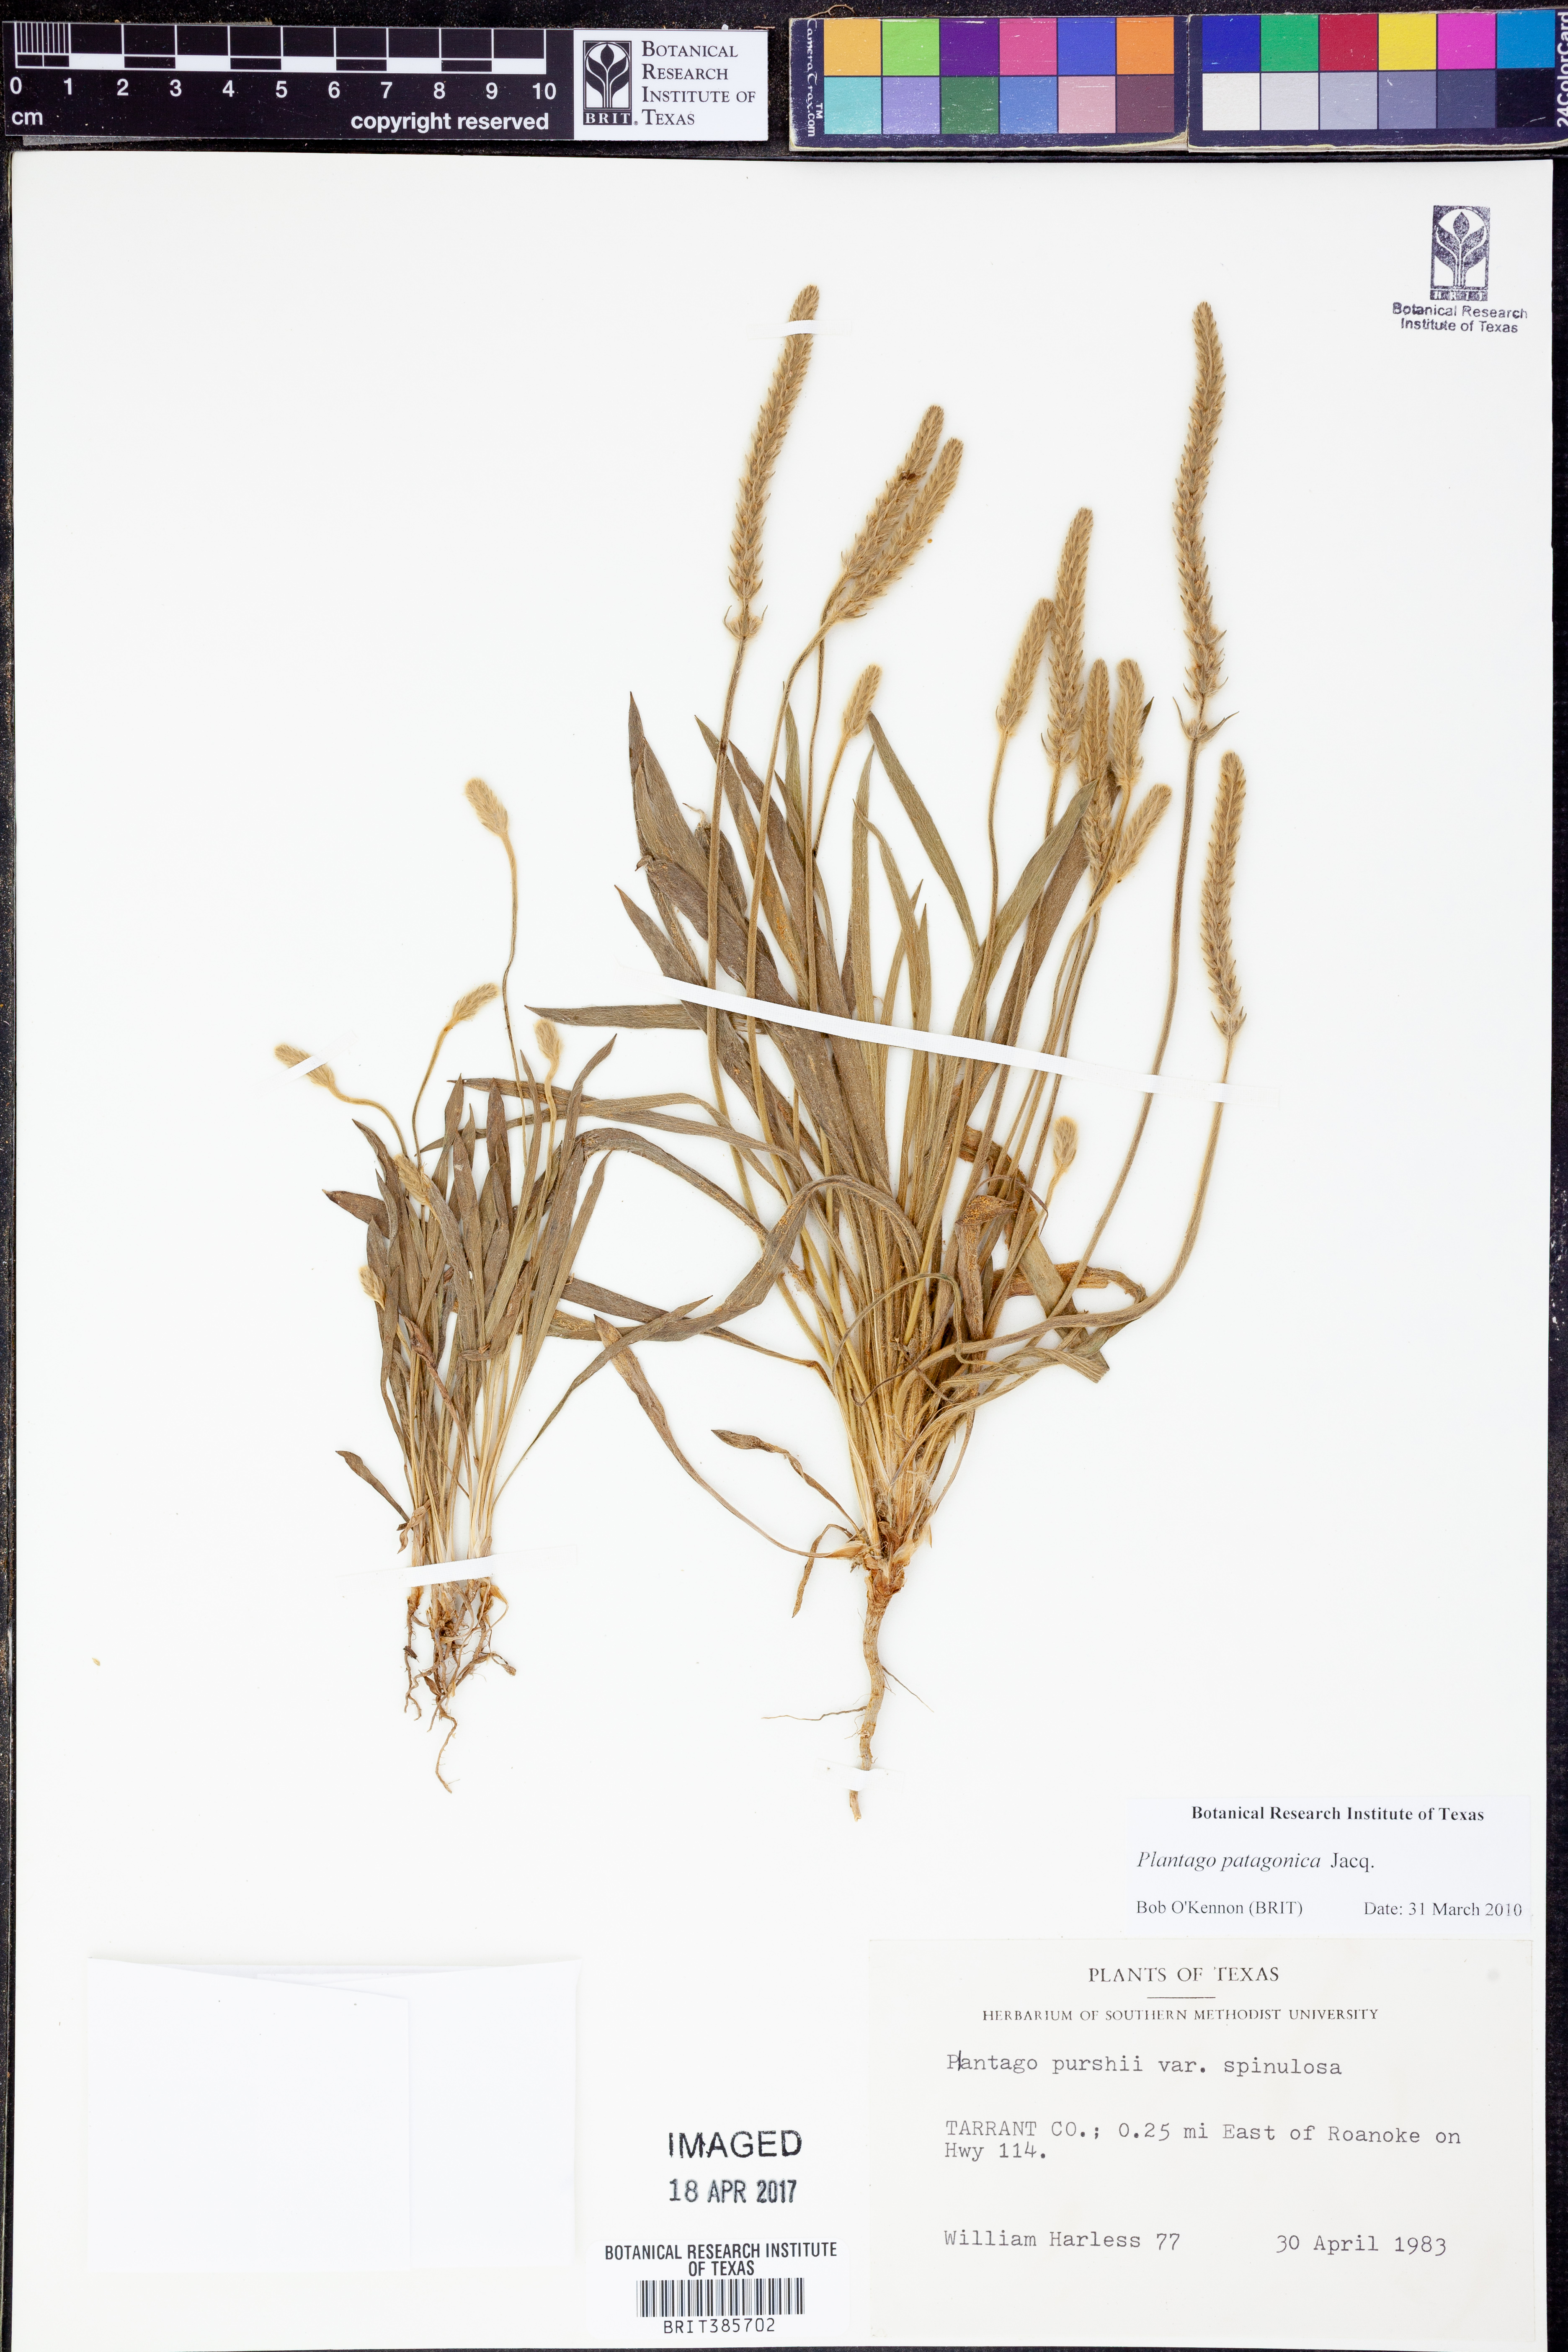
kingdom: Plantae
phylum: Tracheophyta
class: Magnoliopsida
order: Lamiales
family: Plantaginaceae
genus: Plantago
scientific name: Plantago patagonica
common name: Patagonia indian-wheat
